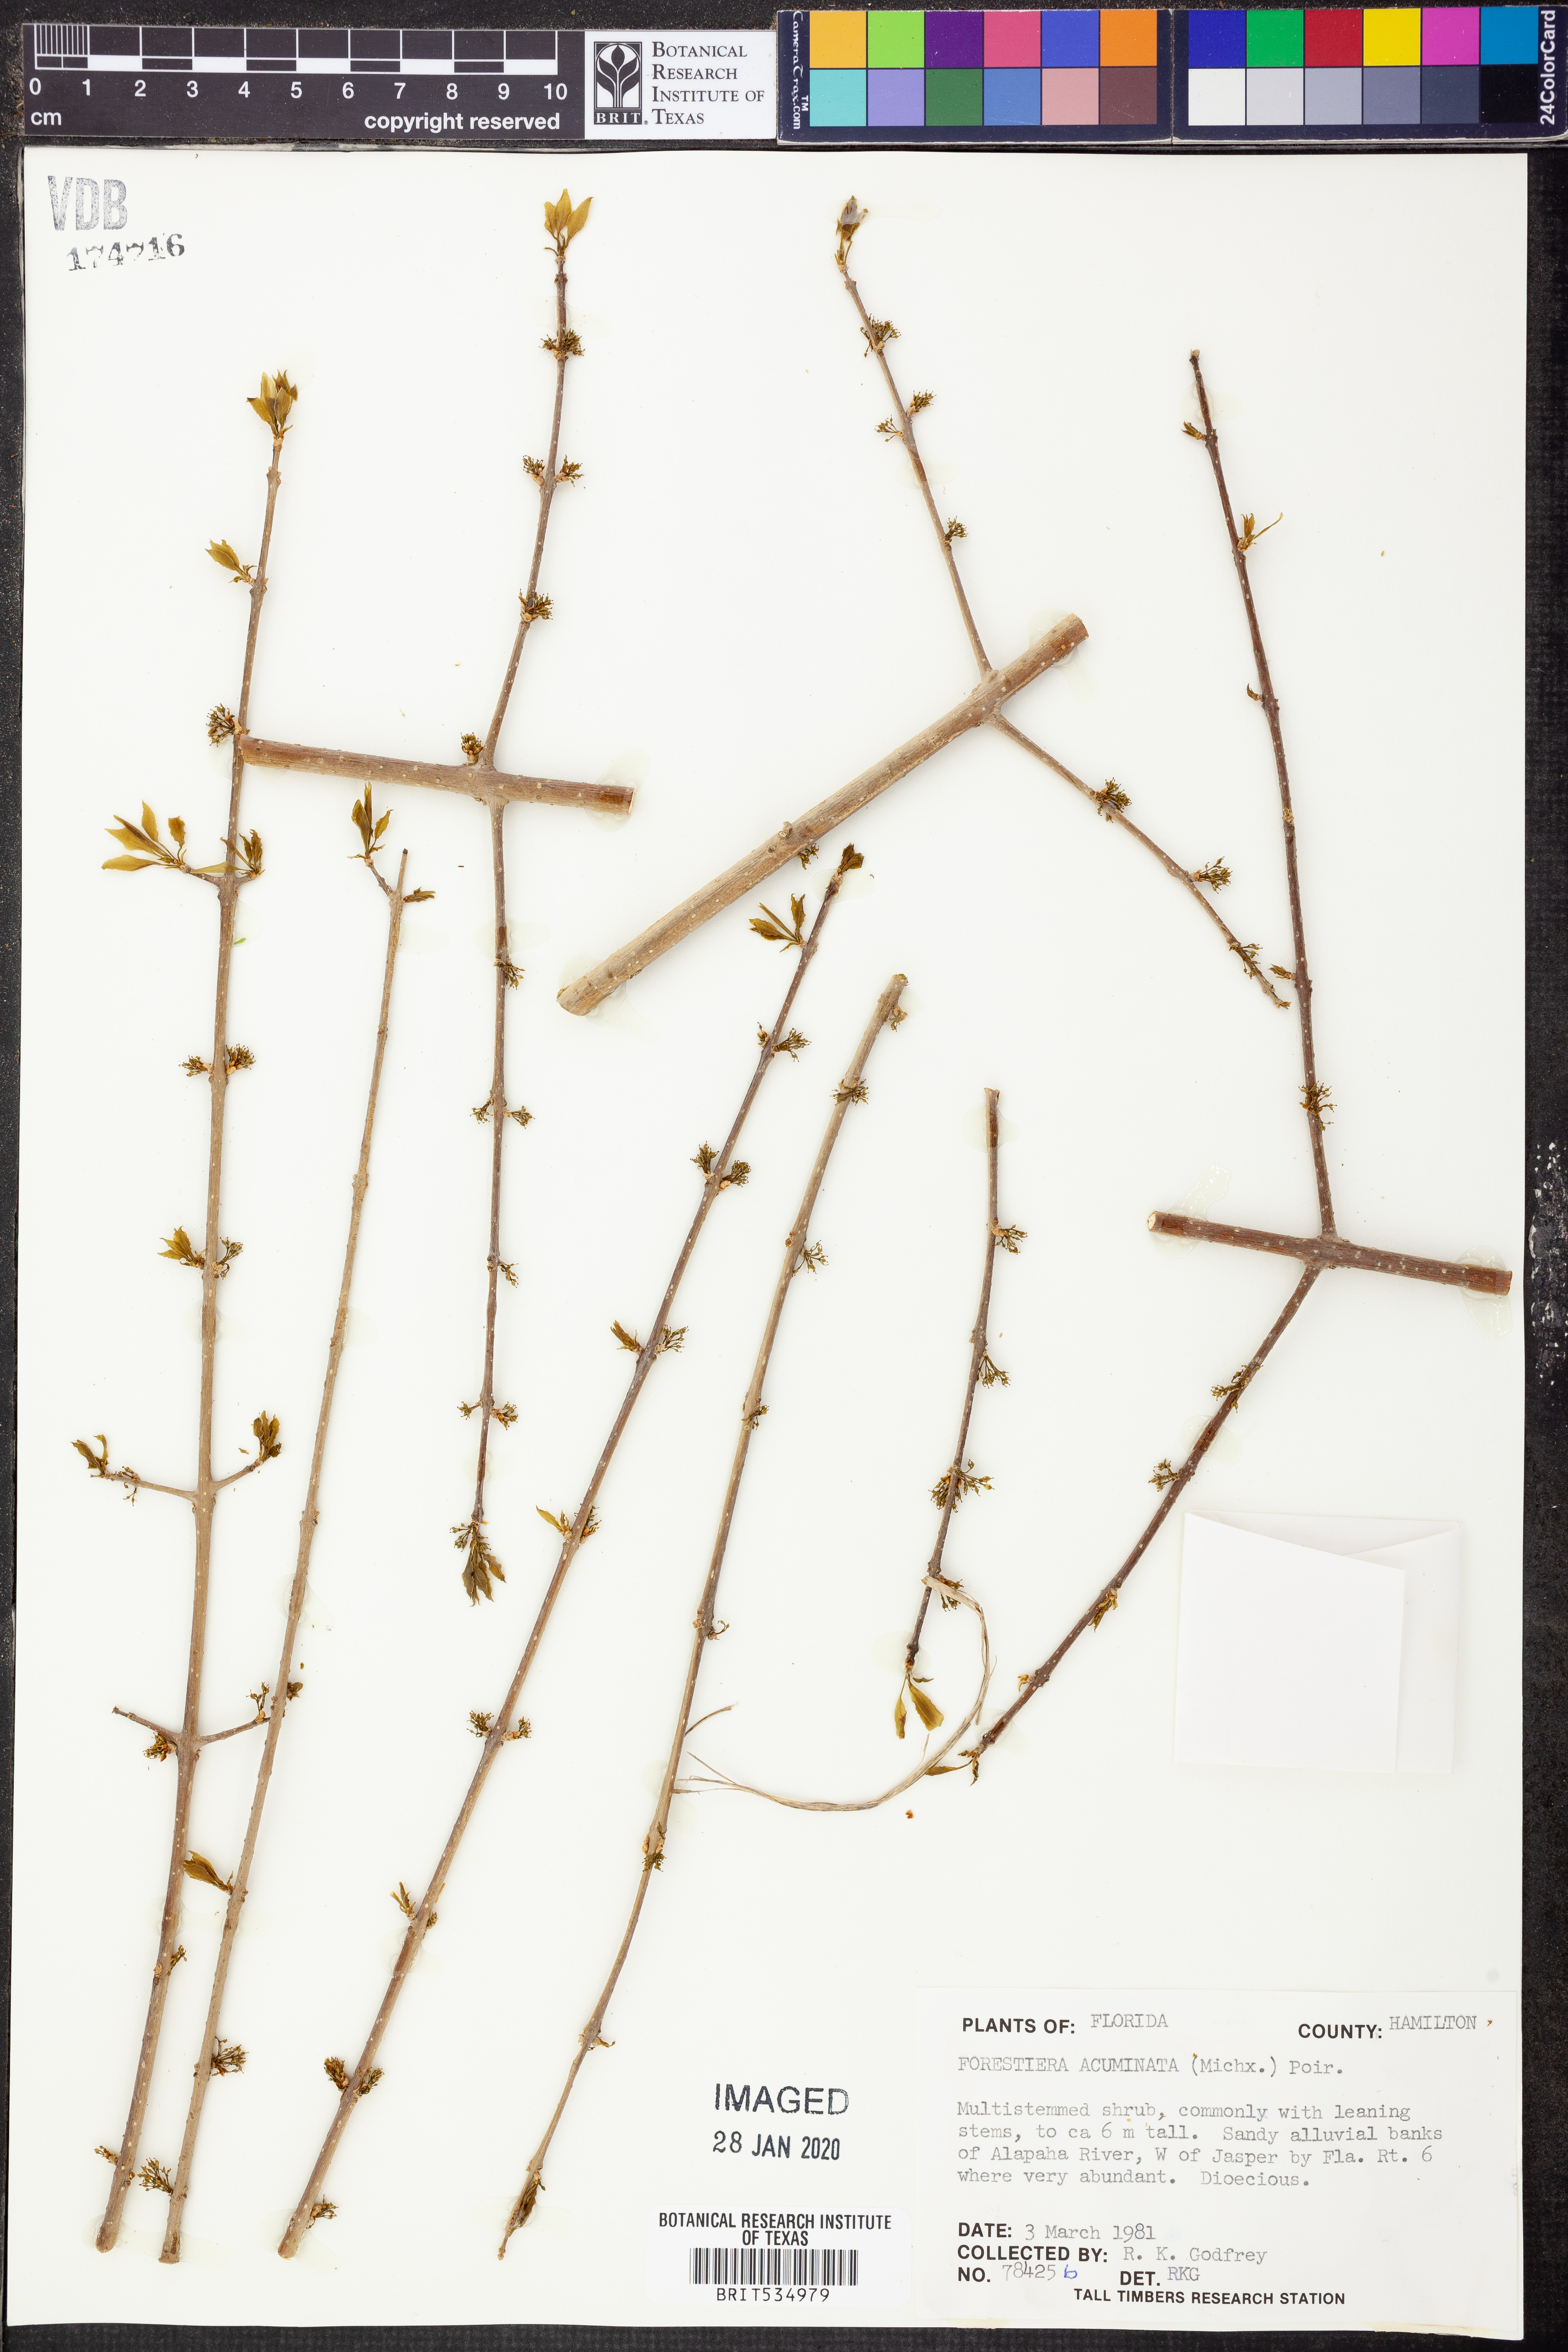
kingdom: Plantae
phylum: Tracheophyta
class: Magnoliopsida
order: Lamiales
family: Oleaceae
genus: Forestiera
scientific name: Forestiera acuminata
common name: Swamp-privet
